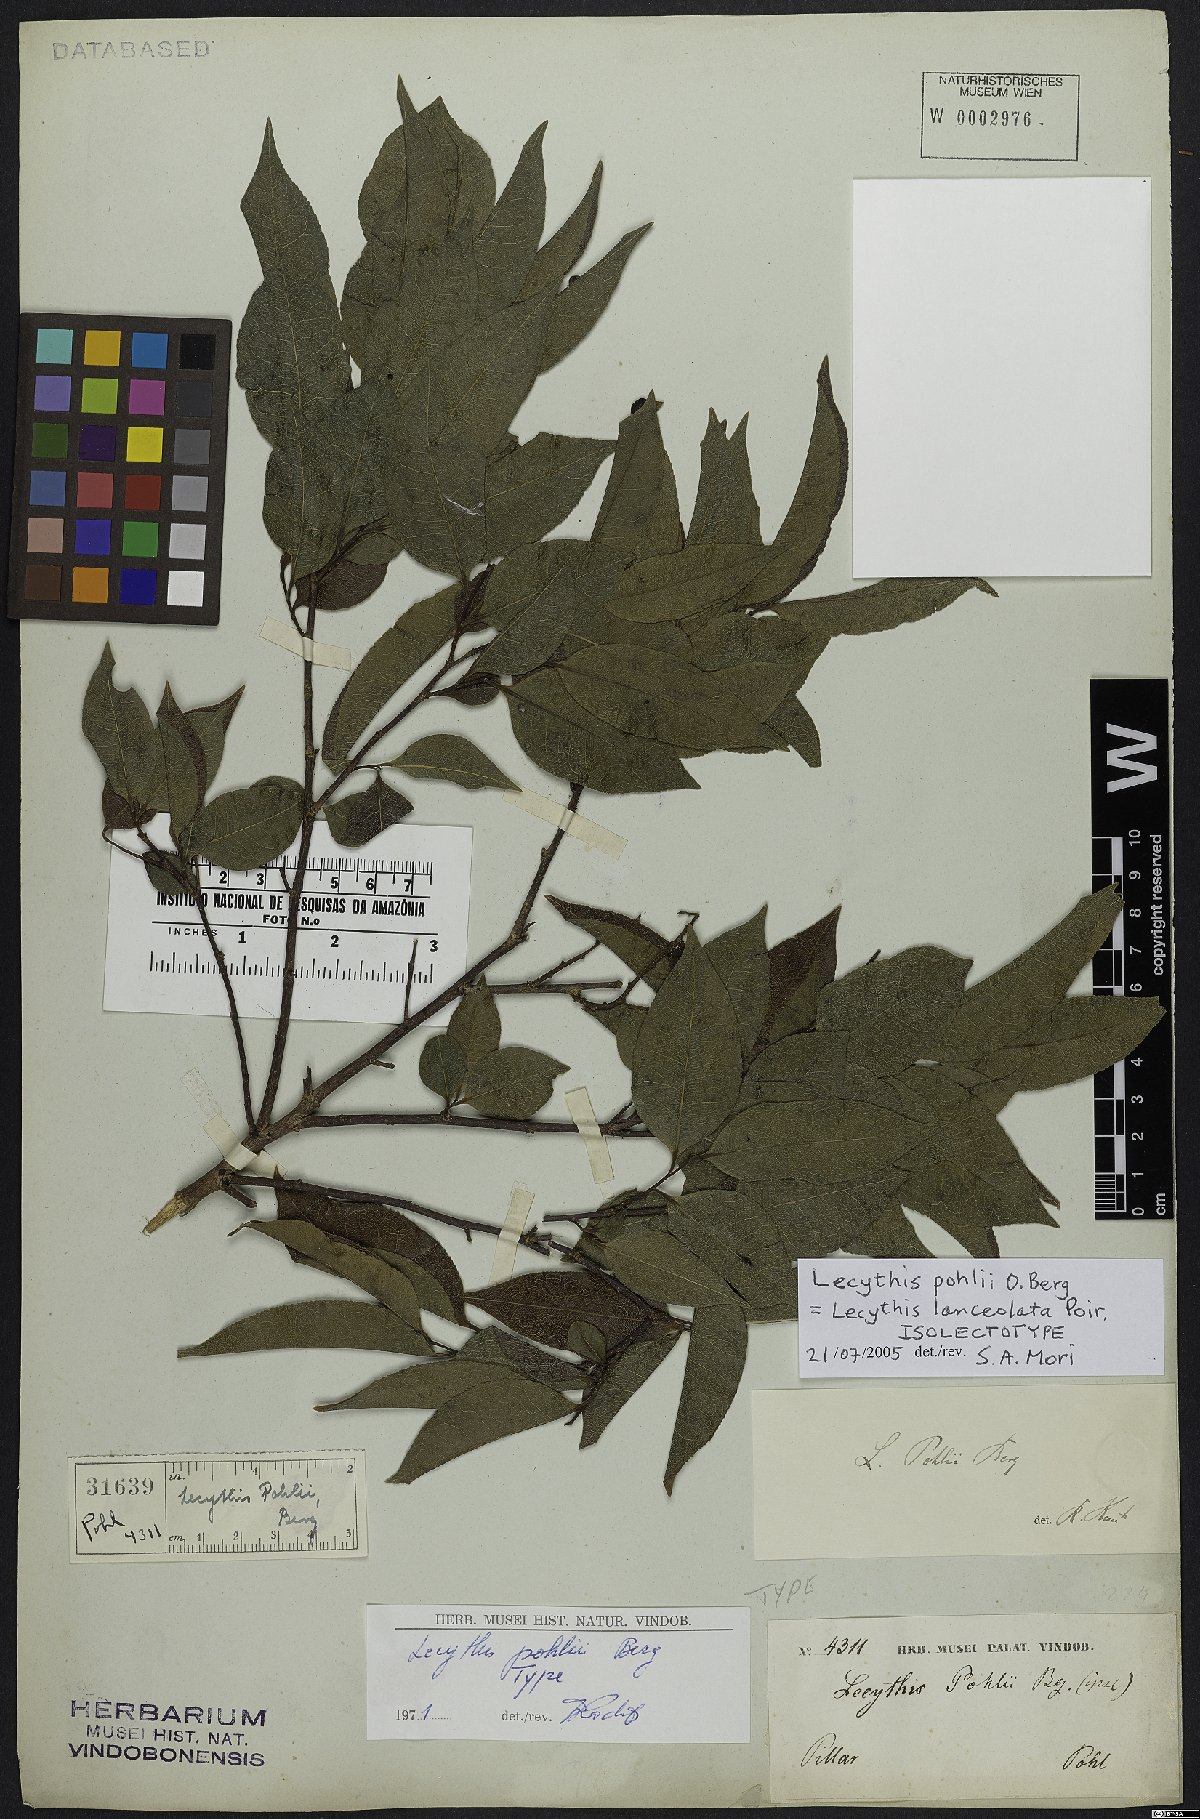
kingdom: Plantae
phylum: Tracheophyta
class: Magnoliopsida
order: Ericales
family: Lecythidaceae
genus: Lecythis
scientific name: Lecythis lanceolata
